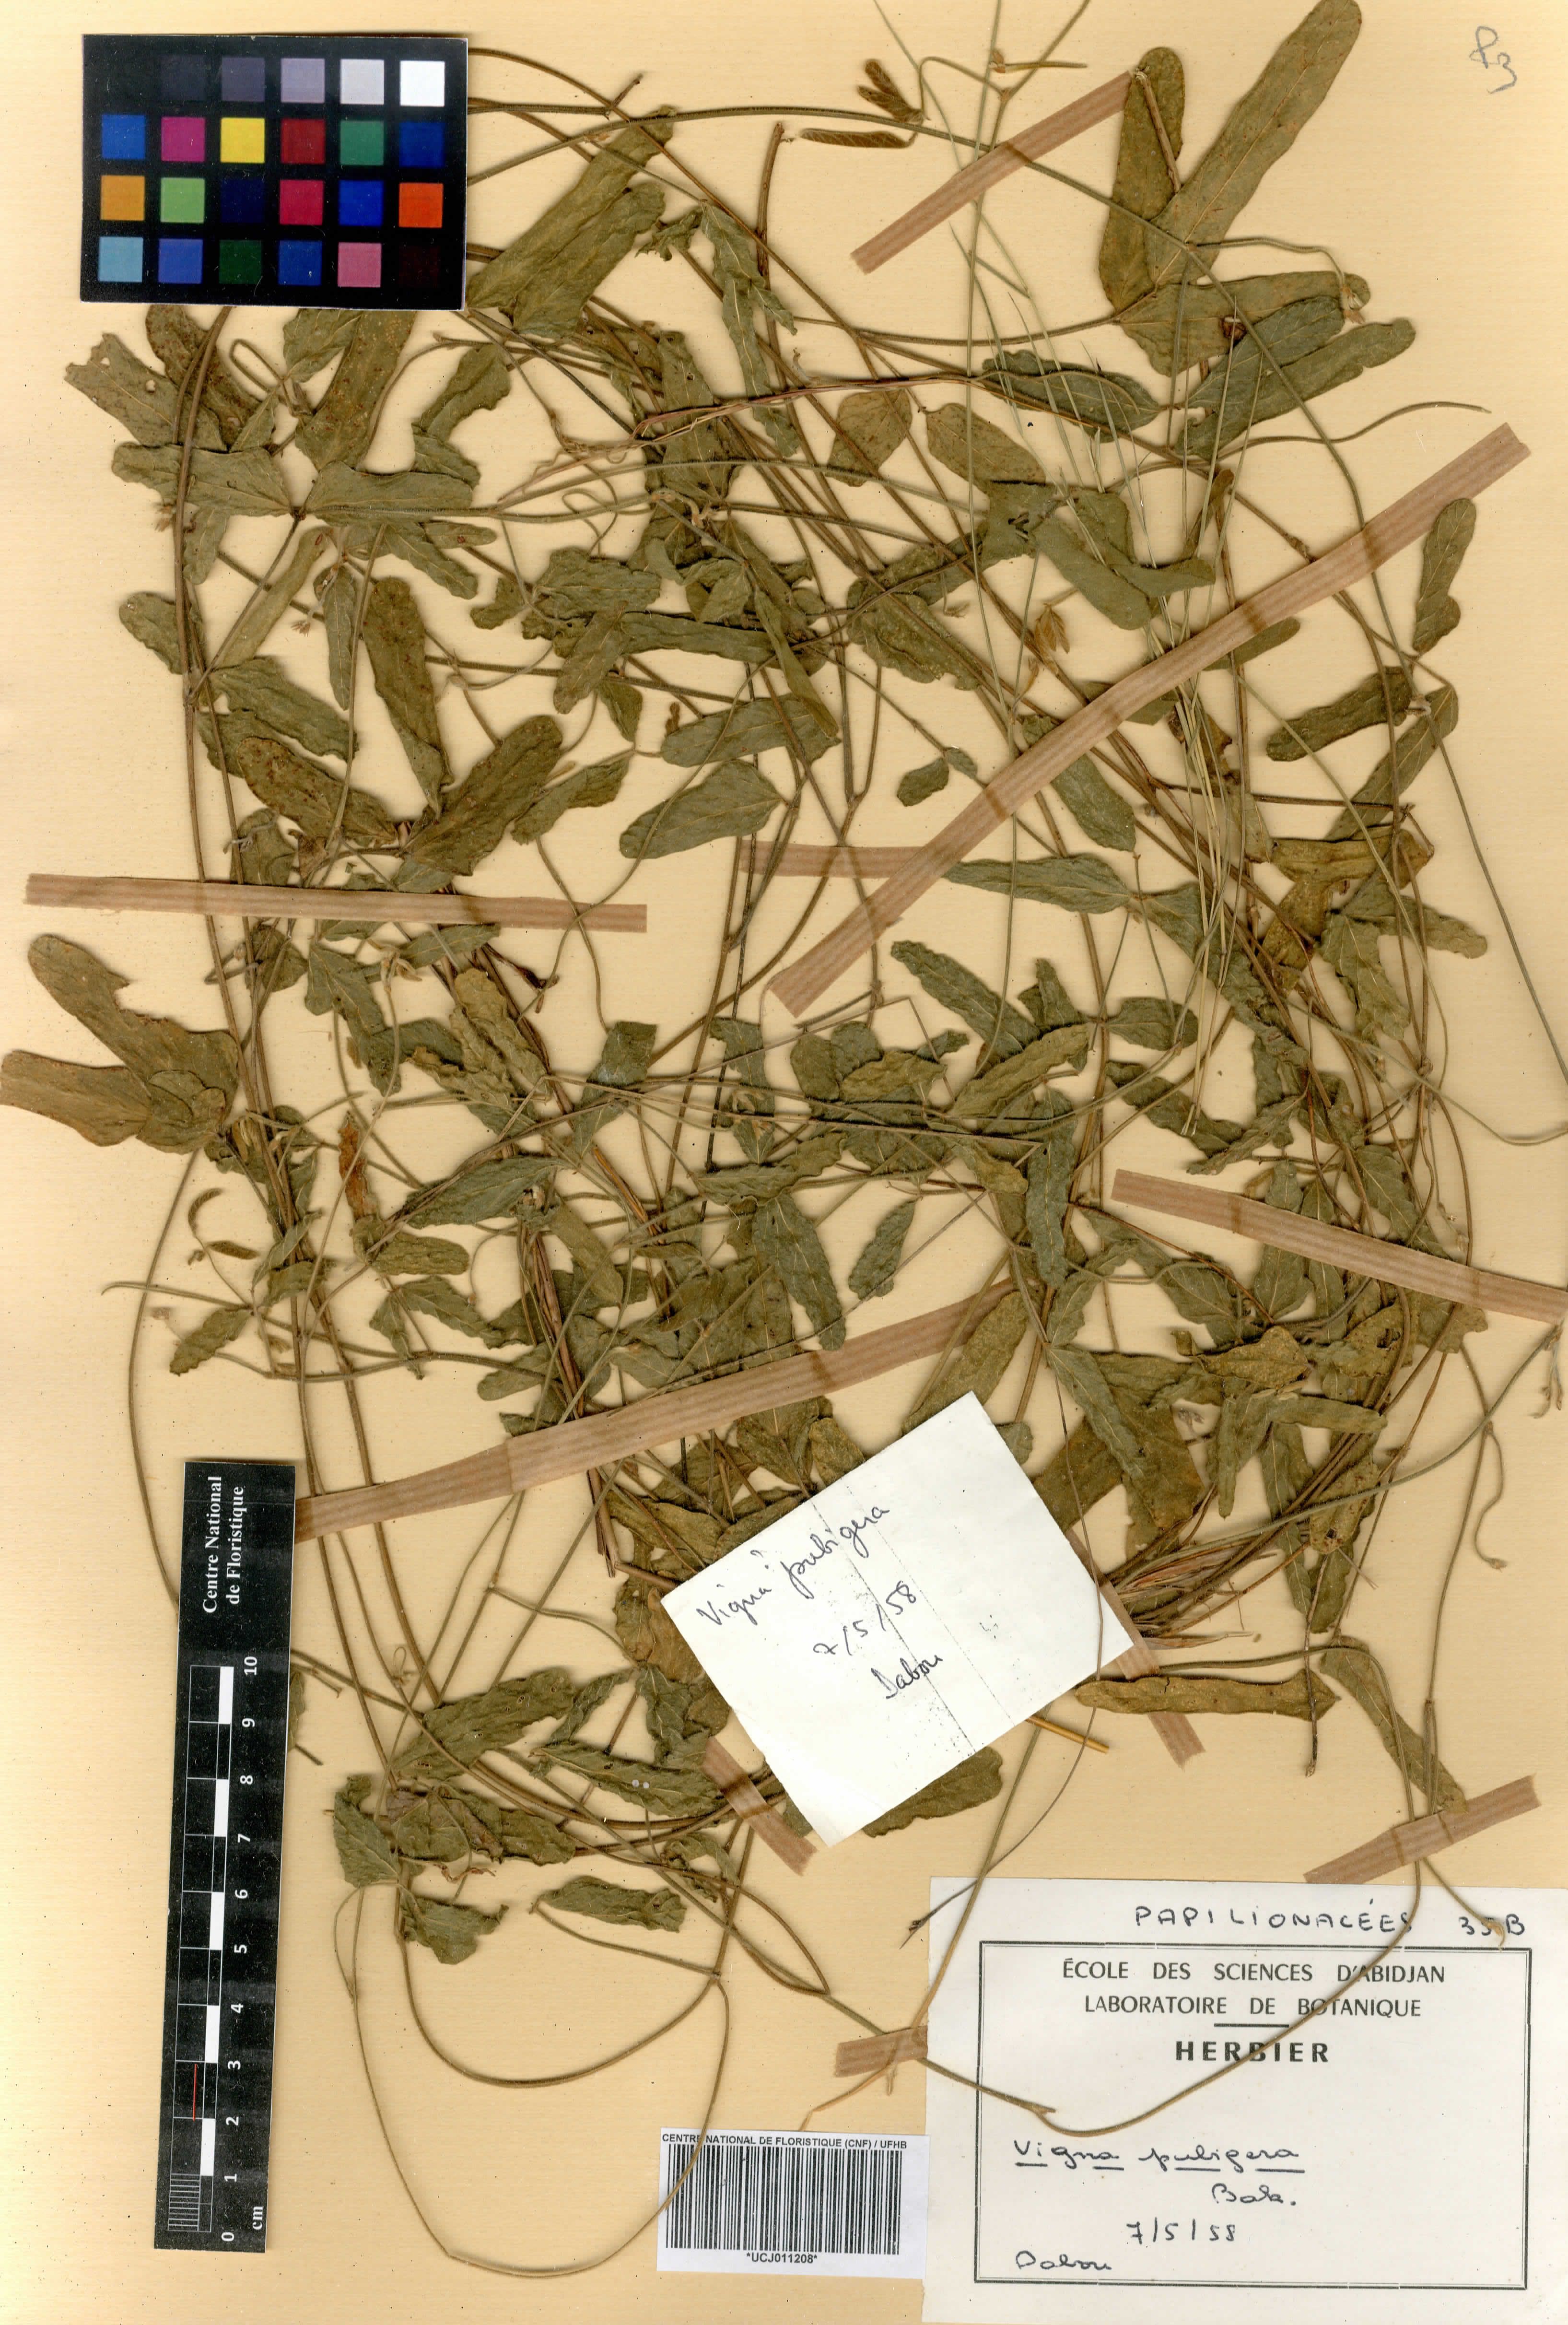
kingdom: Plantae
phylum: Tracheophyta
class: Magnoliopsida
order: Fabales
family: Fabaceae
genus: Vigna
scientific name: Vigna pubigera
